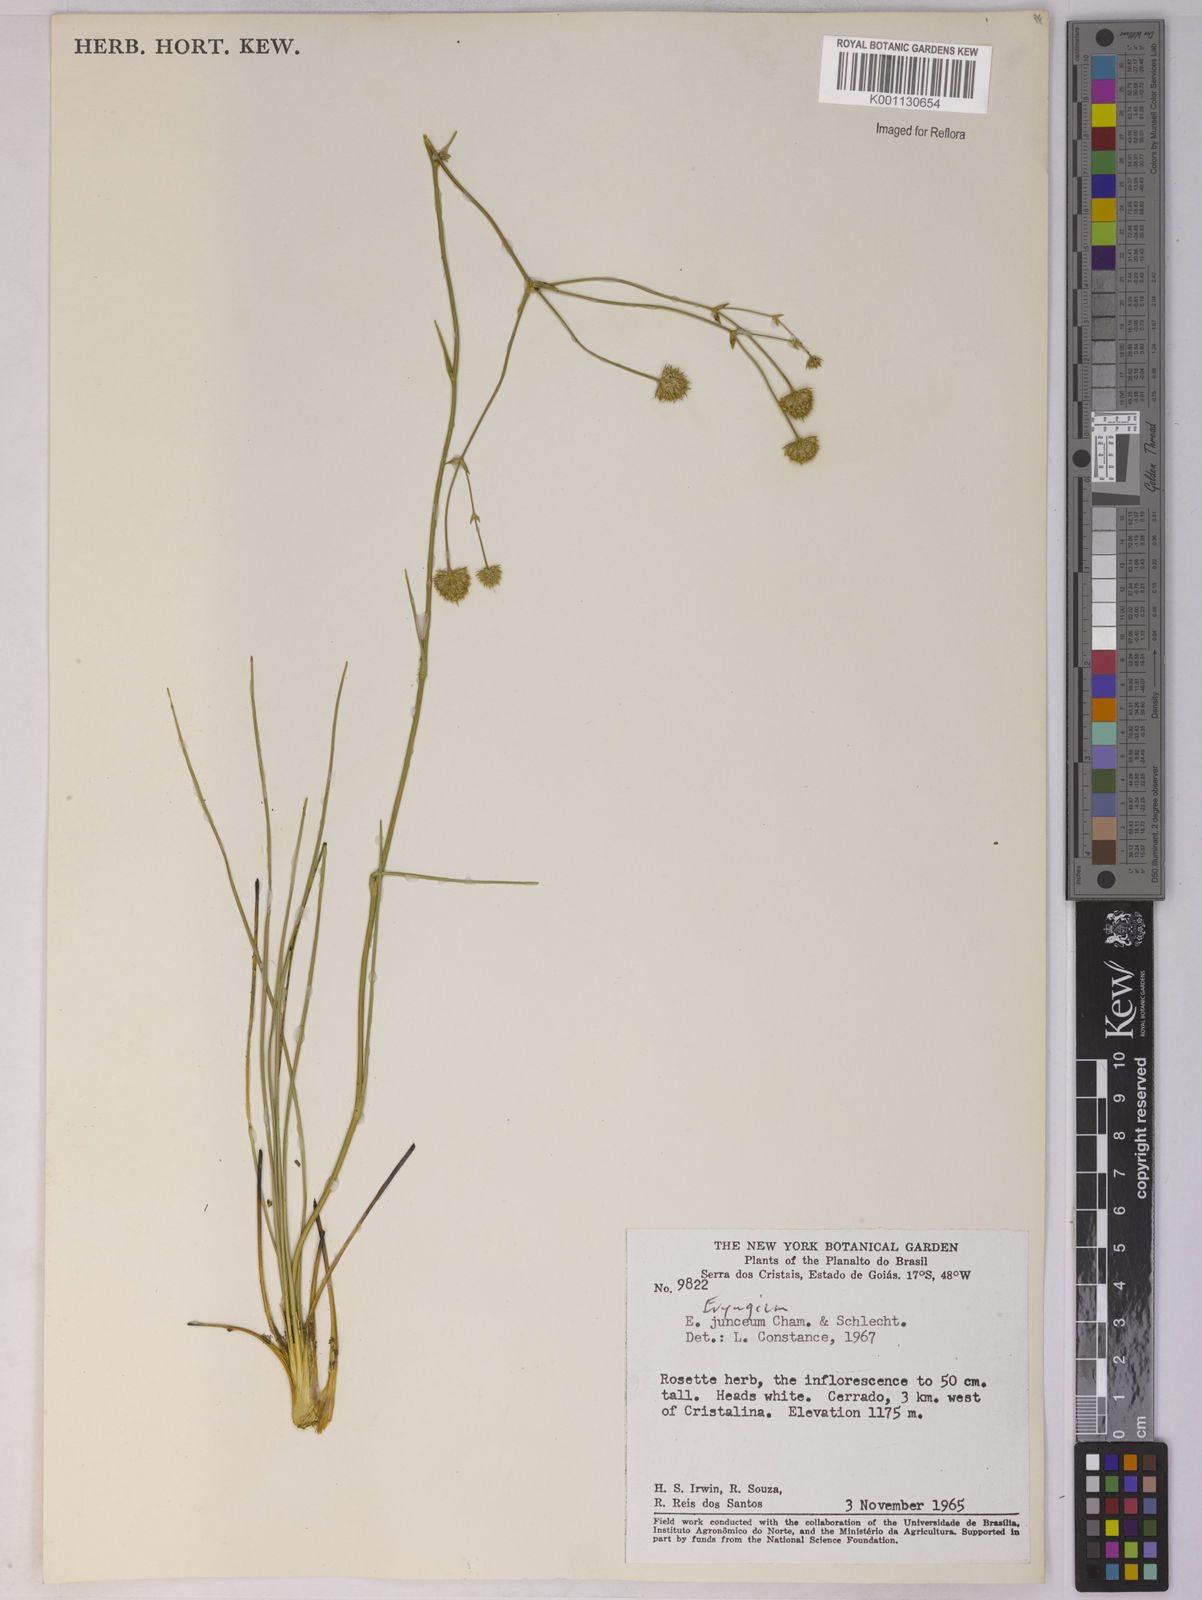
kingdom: Plantae
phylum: Tracheophyta
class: Magnoliopsida
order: Apiales
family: Apiaceae
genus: Eryngium
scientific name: Eryngium junceum
